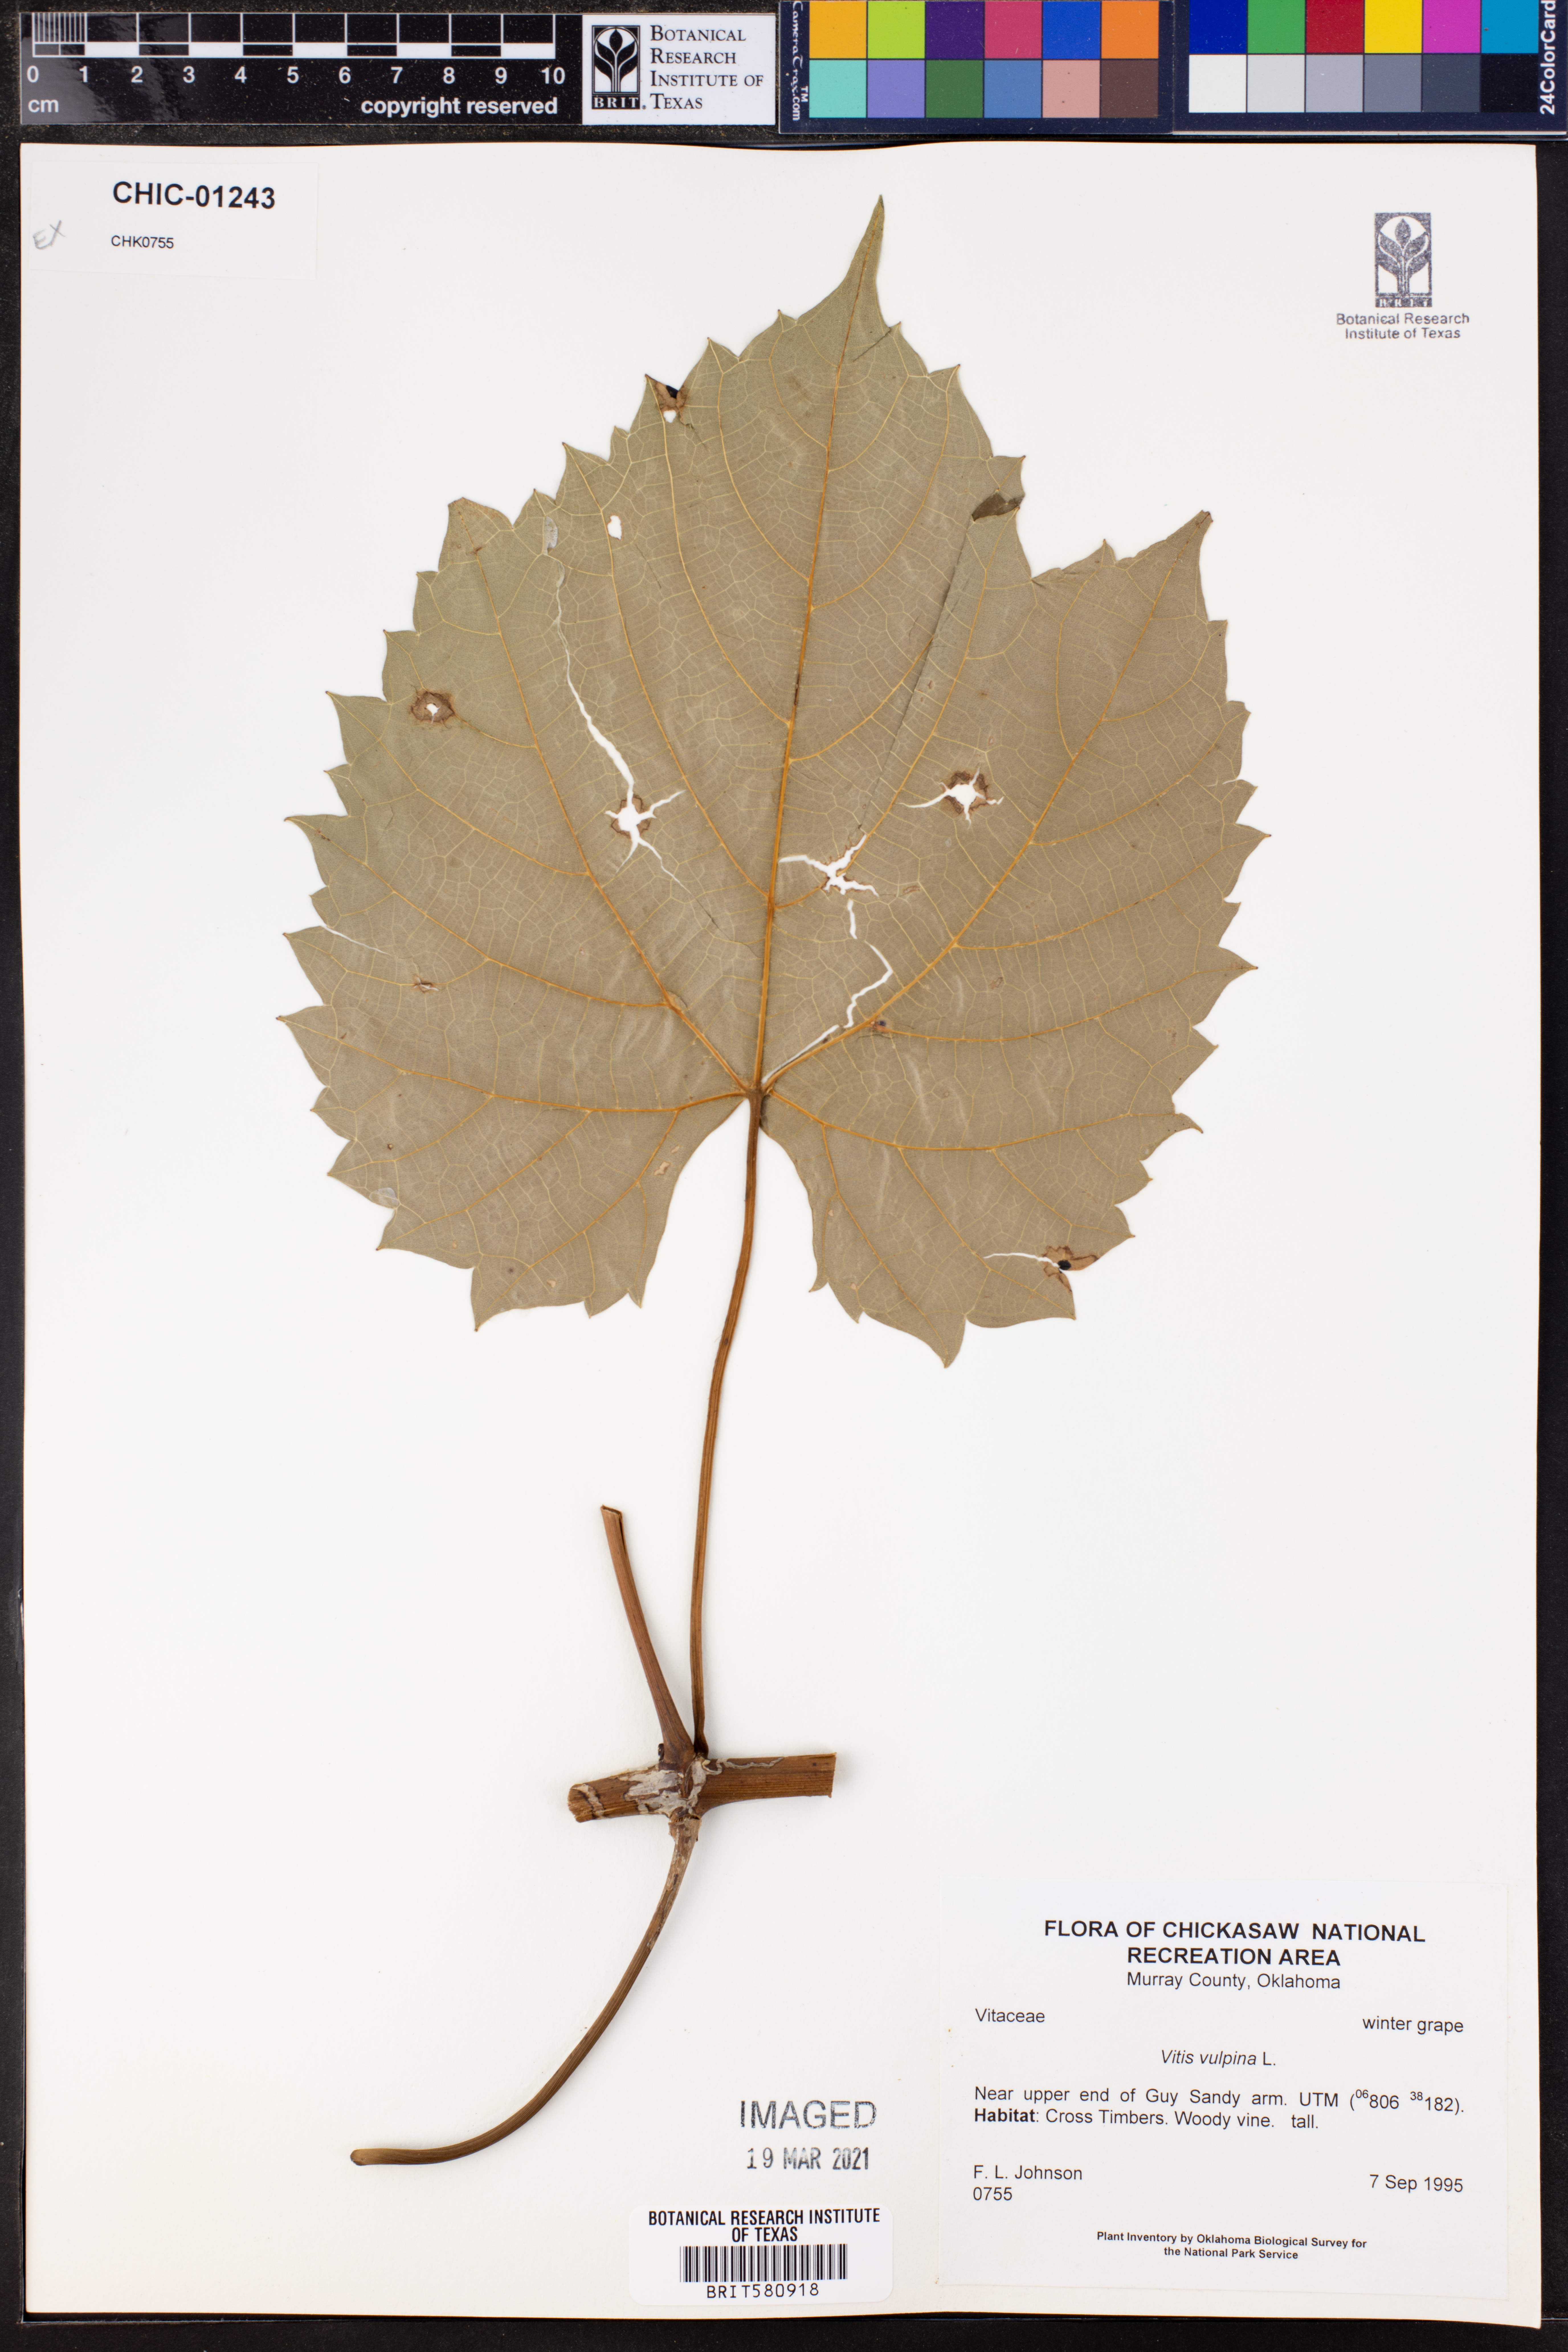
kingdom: Plantae
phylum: Tracheophyta
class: Magnoliopsida
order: Vitales
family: Vitaceae
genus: Vitis
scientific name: Vitis vulpina
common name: Frost grape
